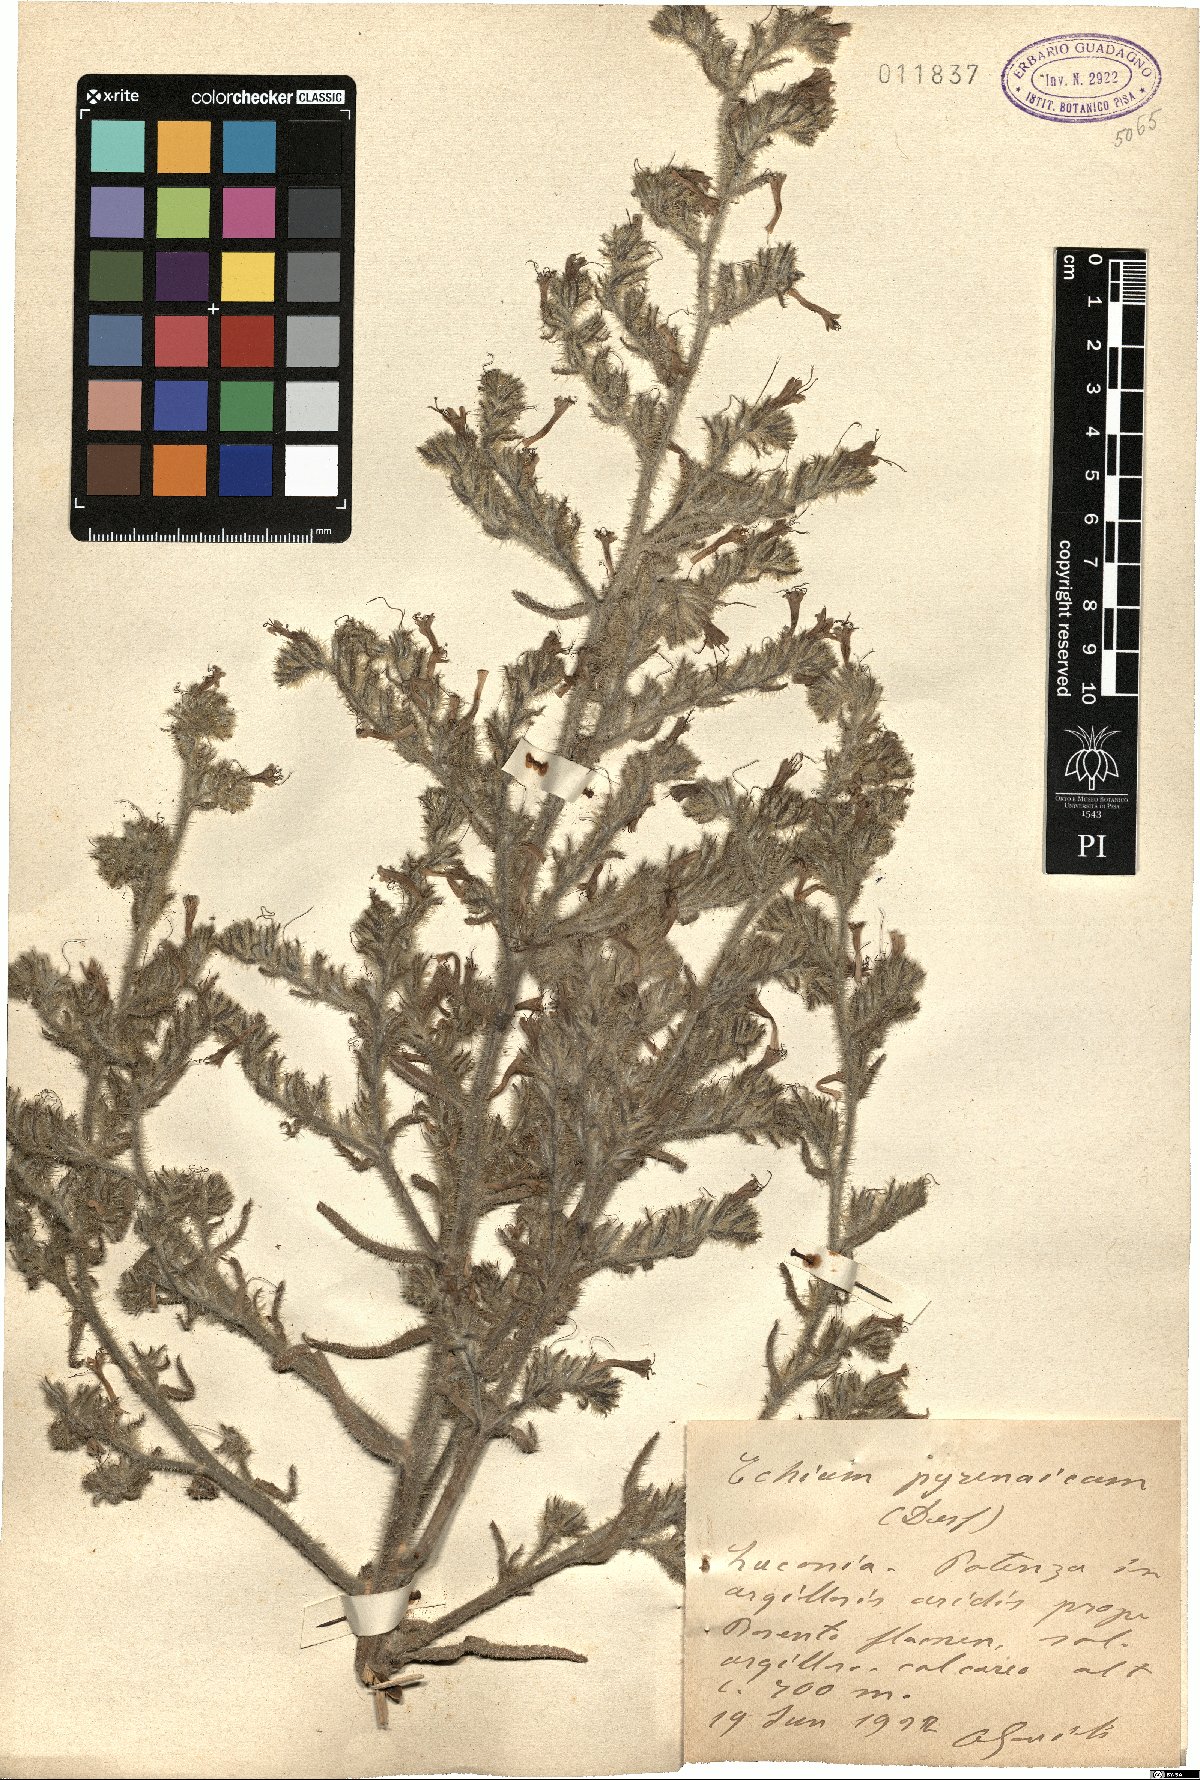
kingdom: Plantae
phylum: Tracheophyta
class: Magnoliopsida
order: Boraginales
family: Boraginaceae
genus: Echium
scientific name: Echium asperrimum
